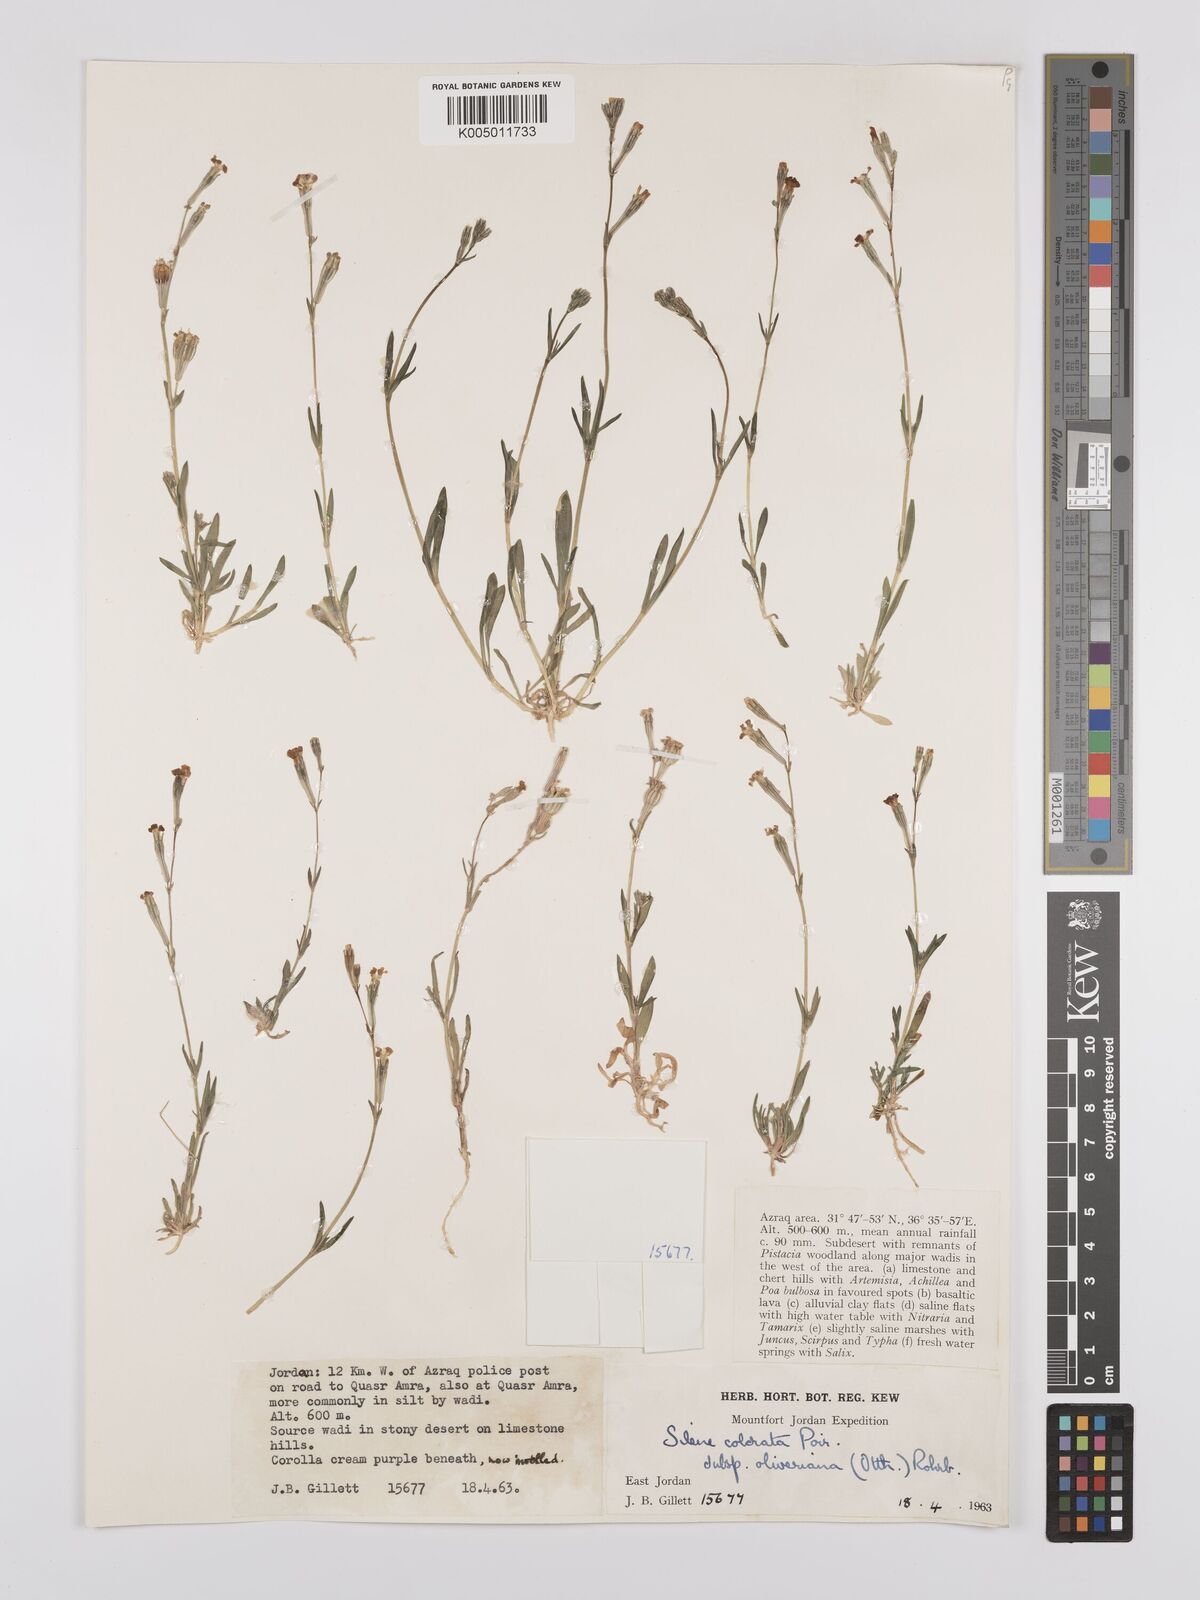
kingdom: Plantae
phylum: Tracheophyta
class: Magnoliopsida
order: Caryophyllales
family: Caryophyllaceae
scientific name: Caryophyllaceae
